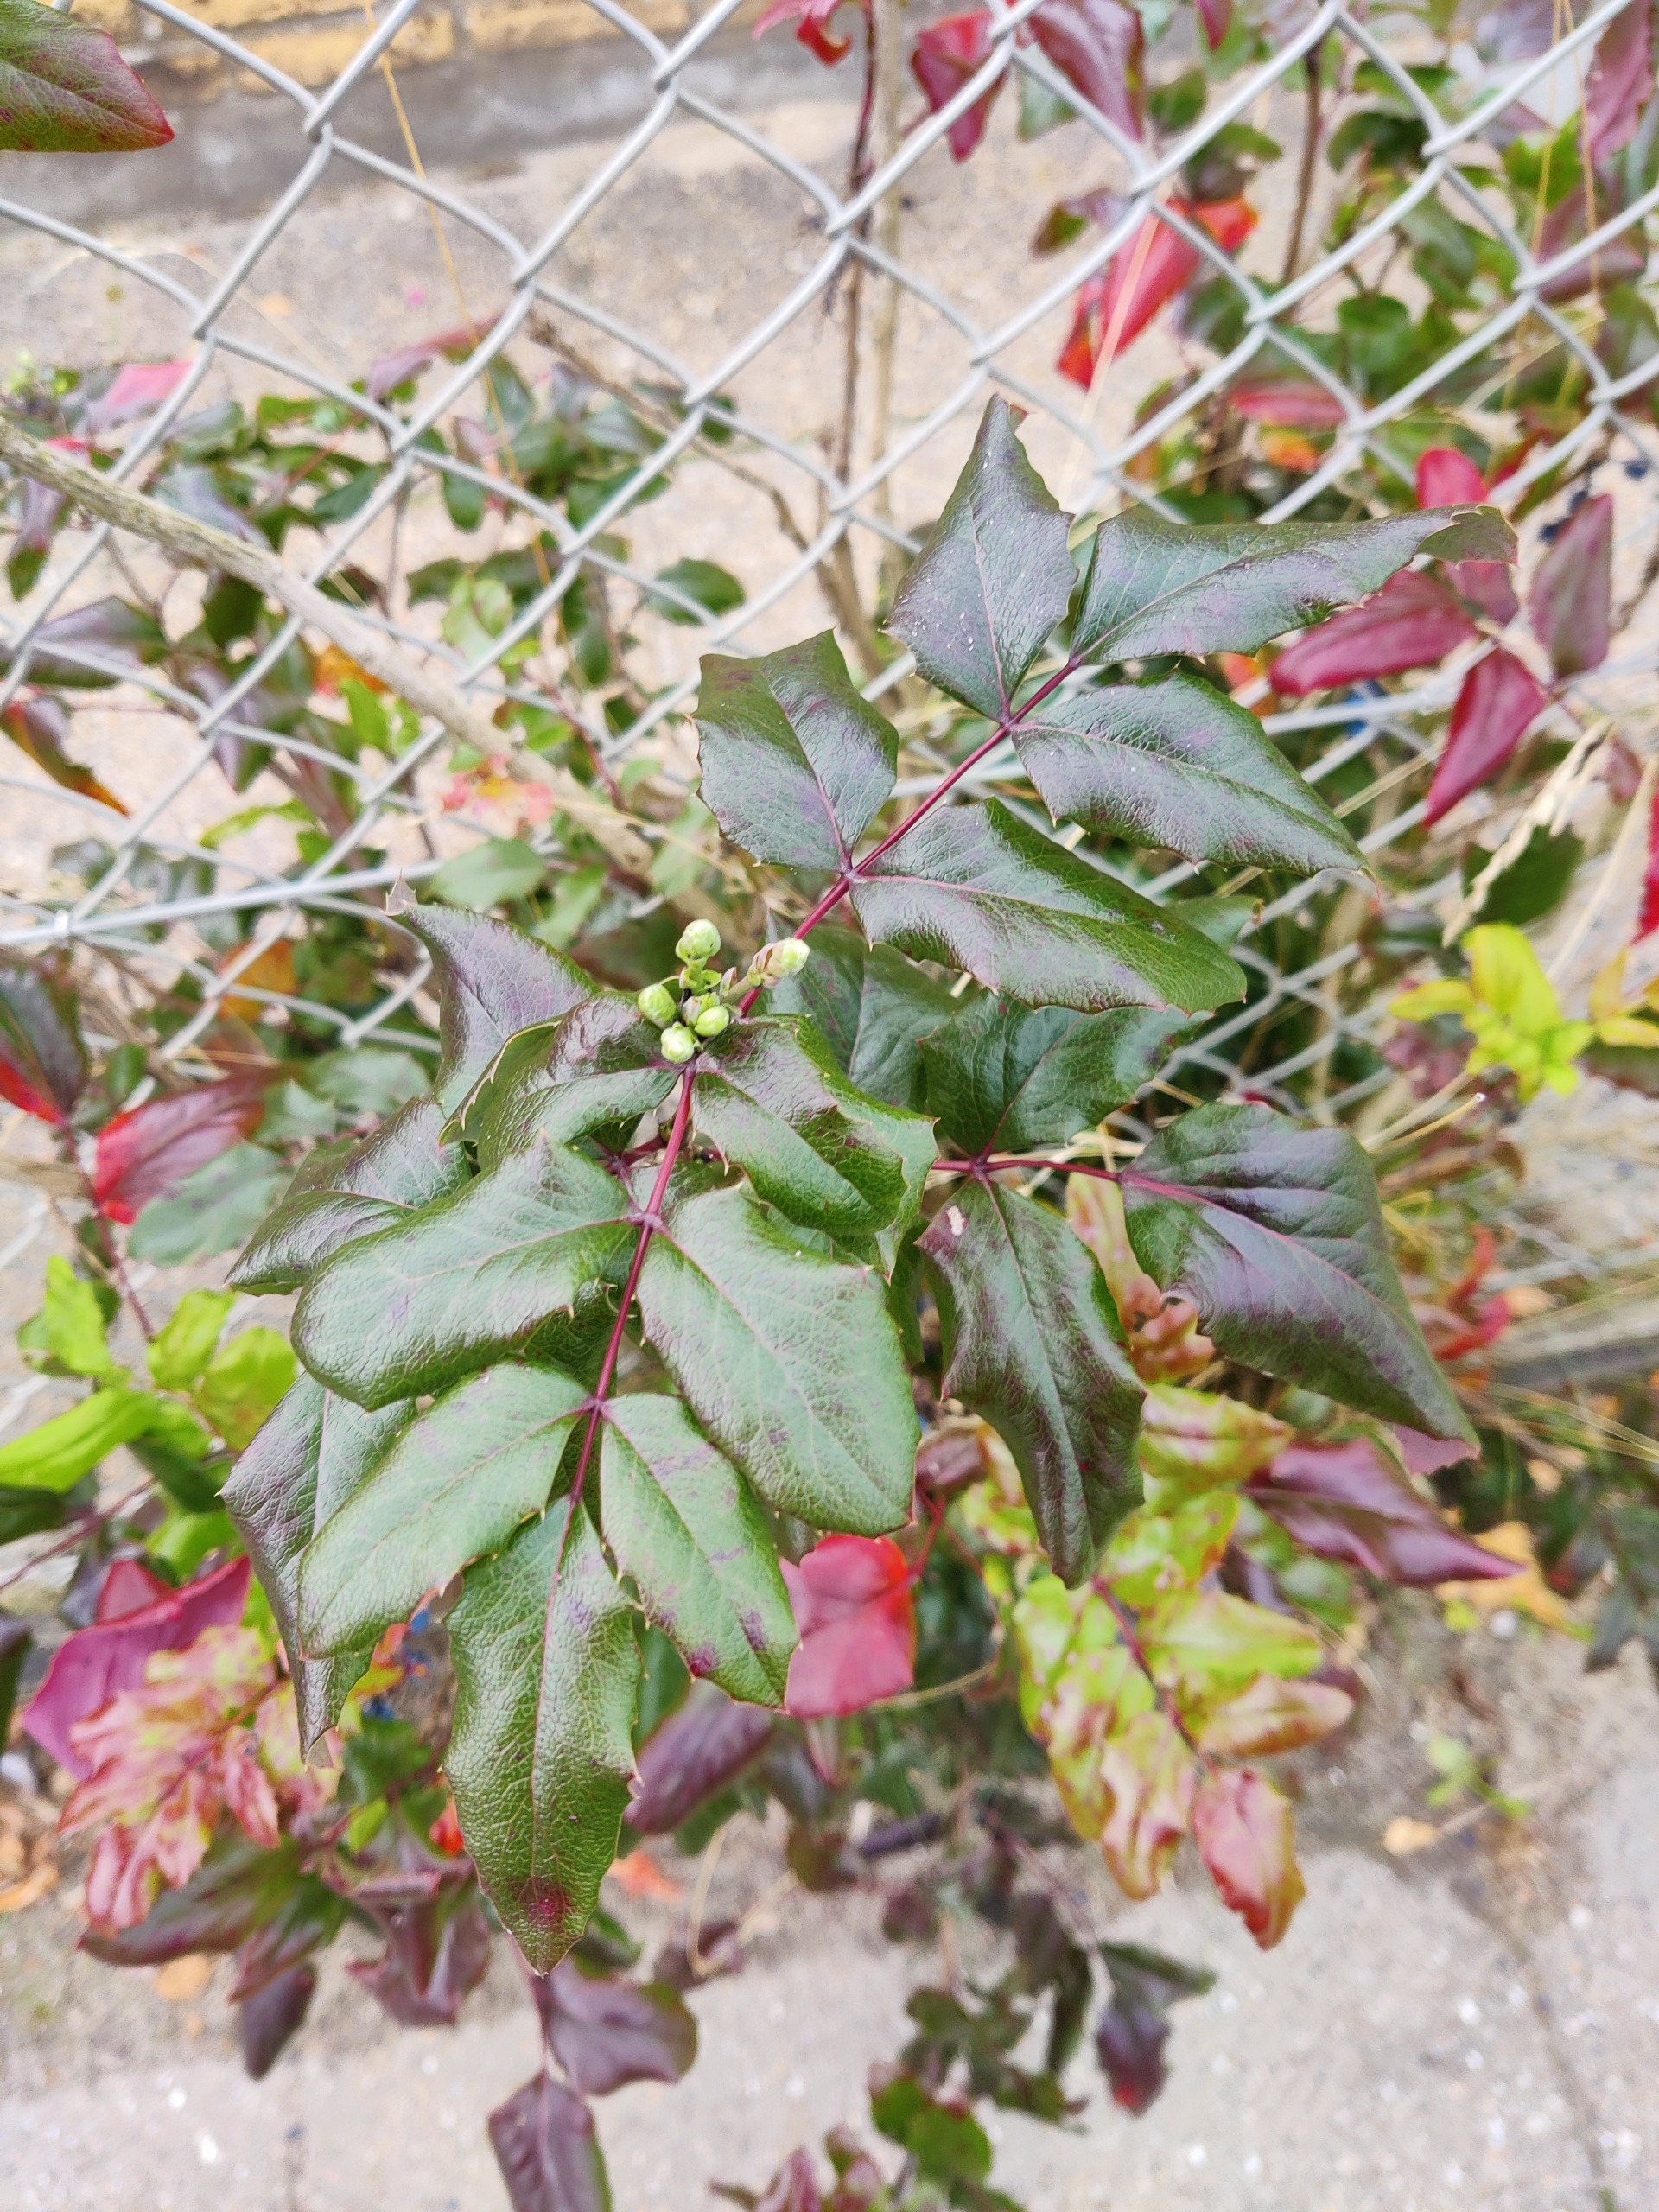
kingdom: Plantae
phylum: Tracheophyta
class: Magnoliopsida
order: Ranunculales
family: Berberidaceae
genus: Mahonia
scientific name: Mahonia aquifolium
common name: Almindelig mahonie
